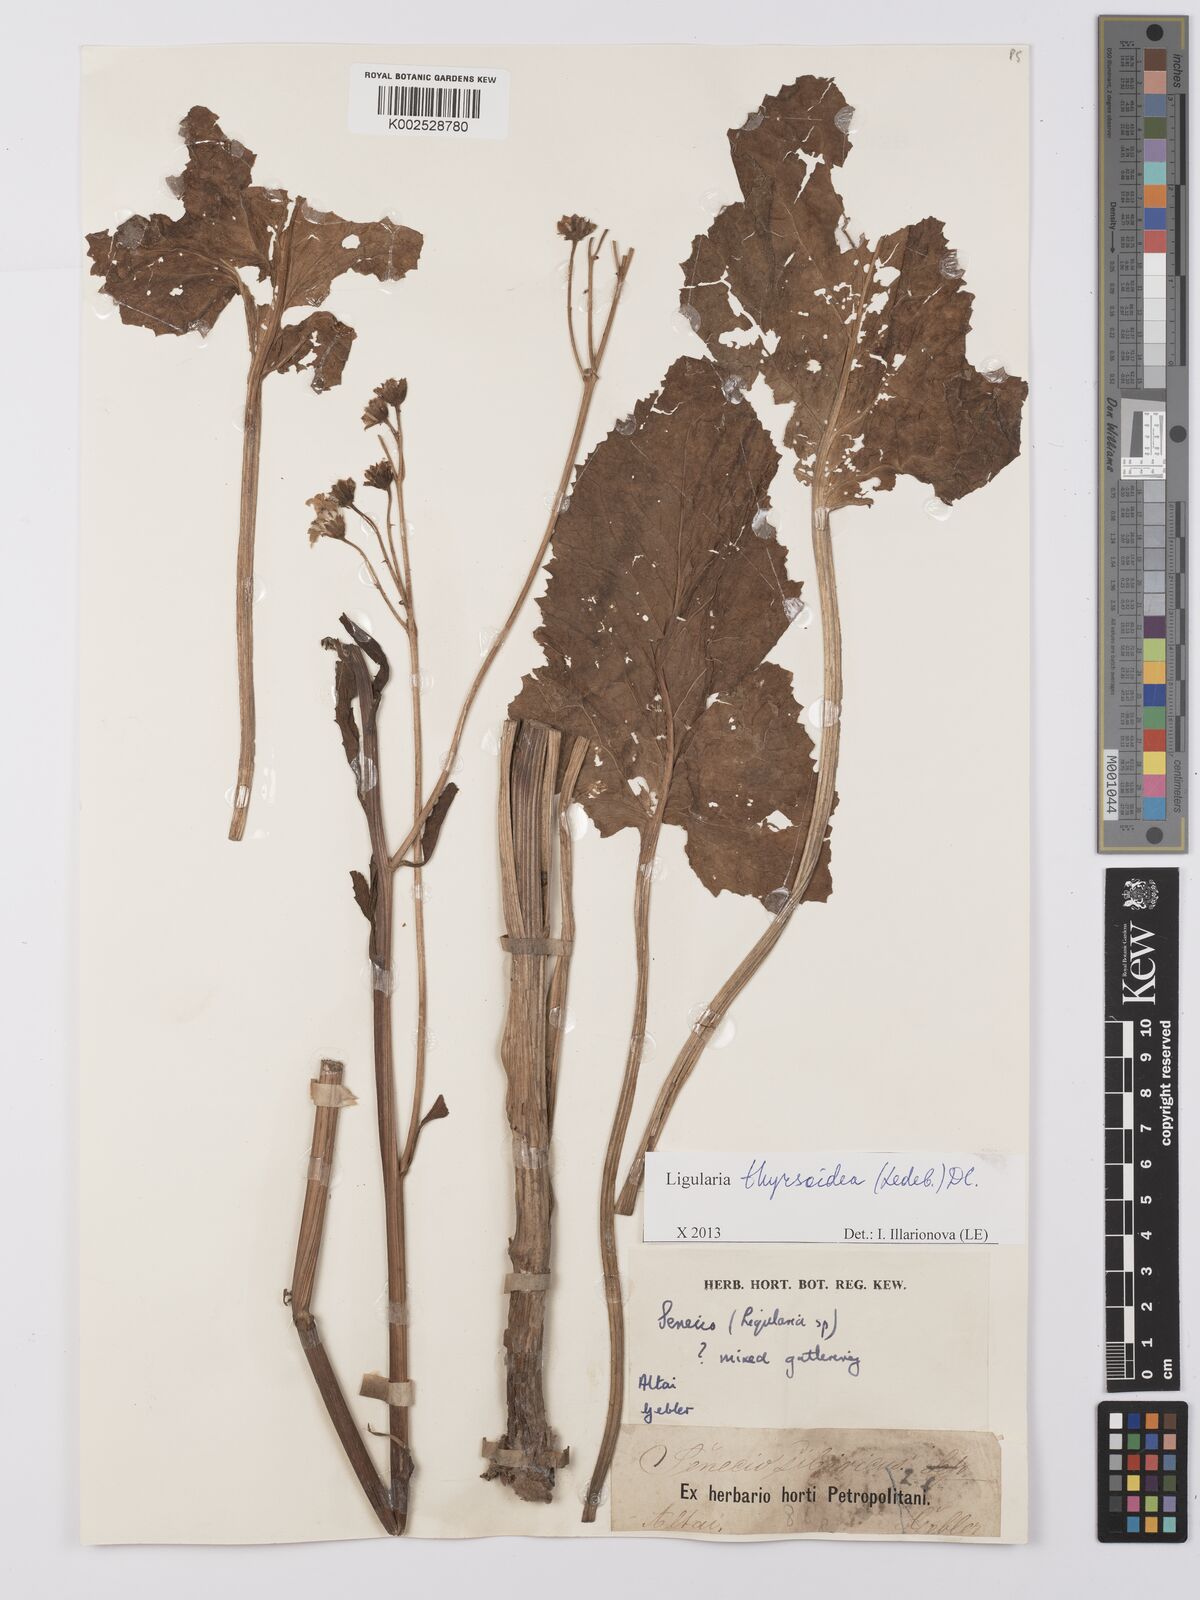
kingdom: Plantae
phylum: Tracheophyta
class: Magnoliopsida
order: Asterales
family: Asteraceae
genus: Vickifunkia
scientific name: Vickifunkia thyrsoidea
